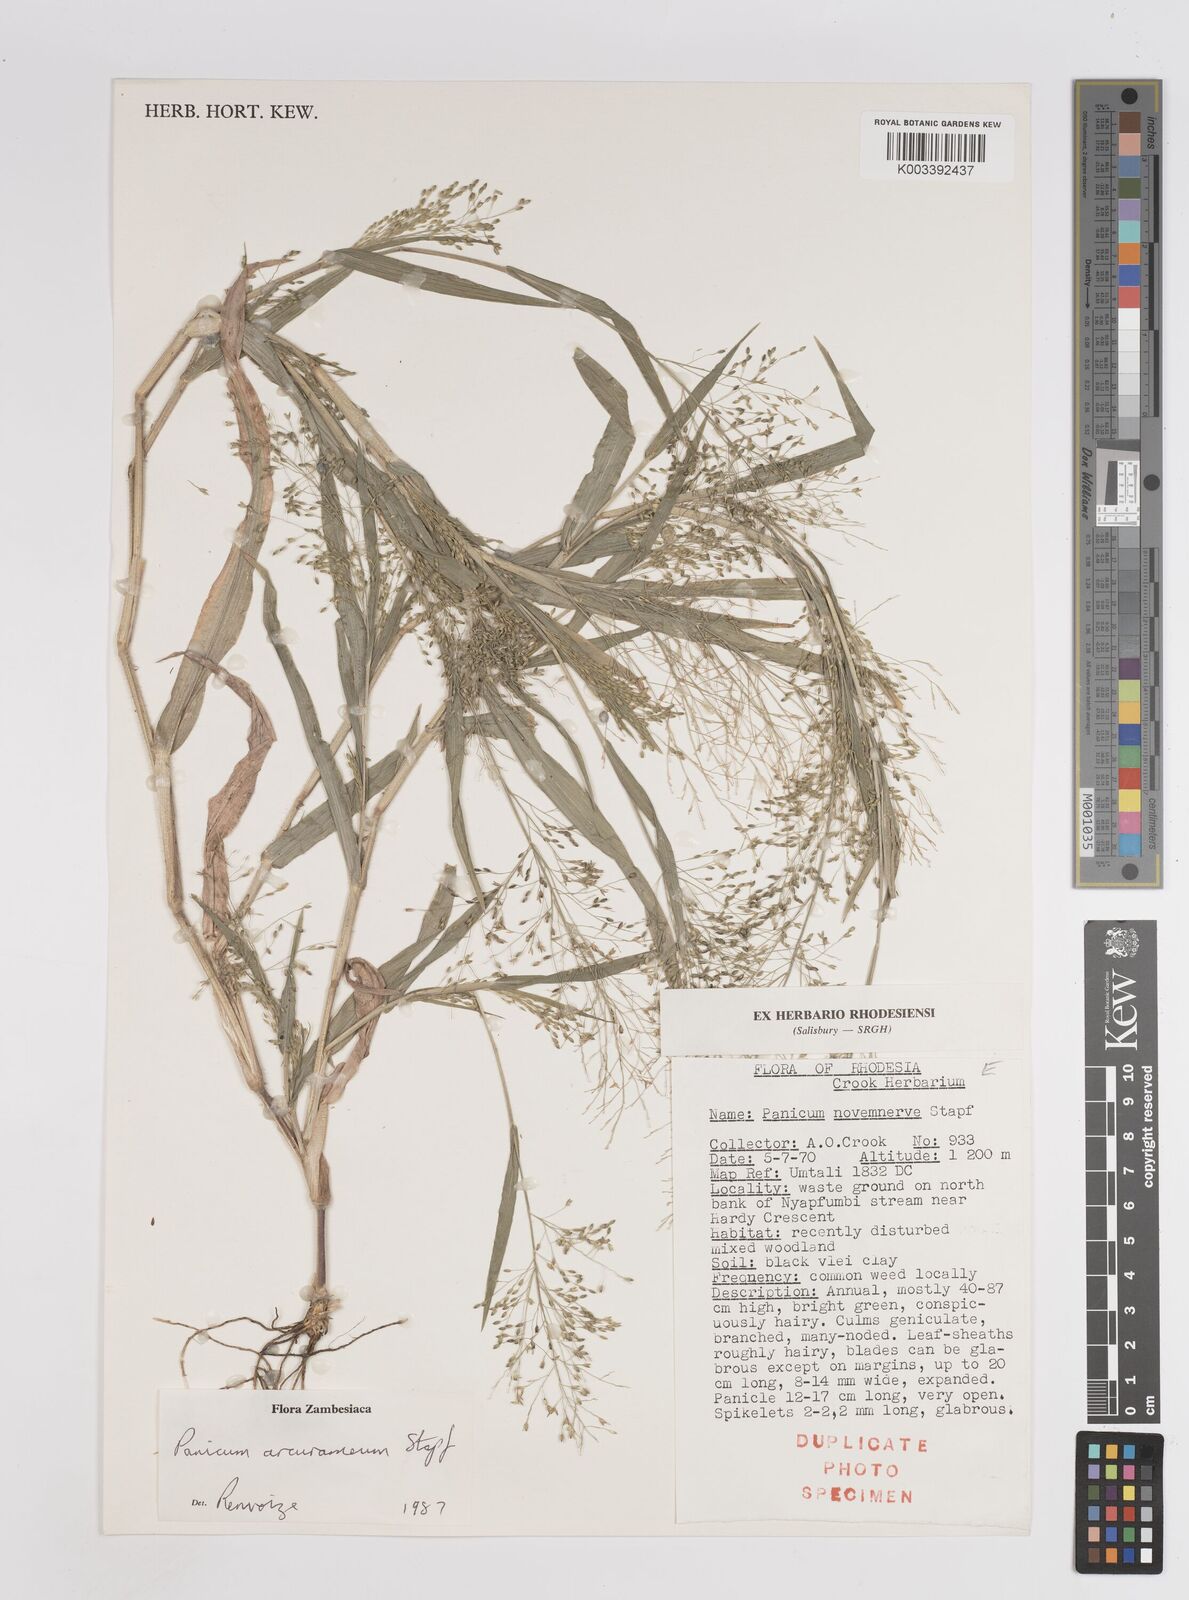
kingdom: Plantae
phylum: Tracheophyta
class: Liliopsida
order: Poales
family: Poaceae
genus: Panicum
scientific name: Panicum arcurameum
